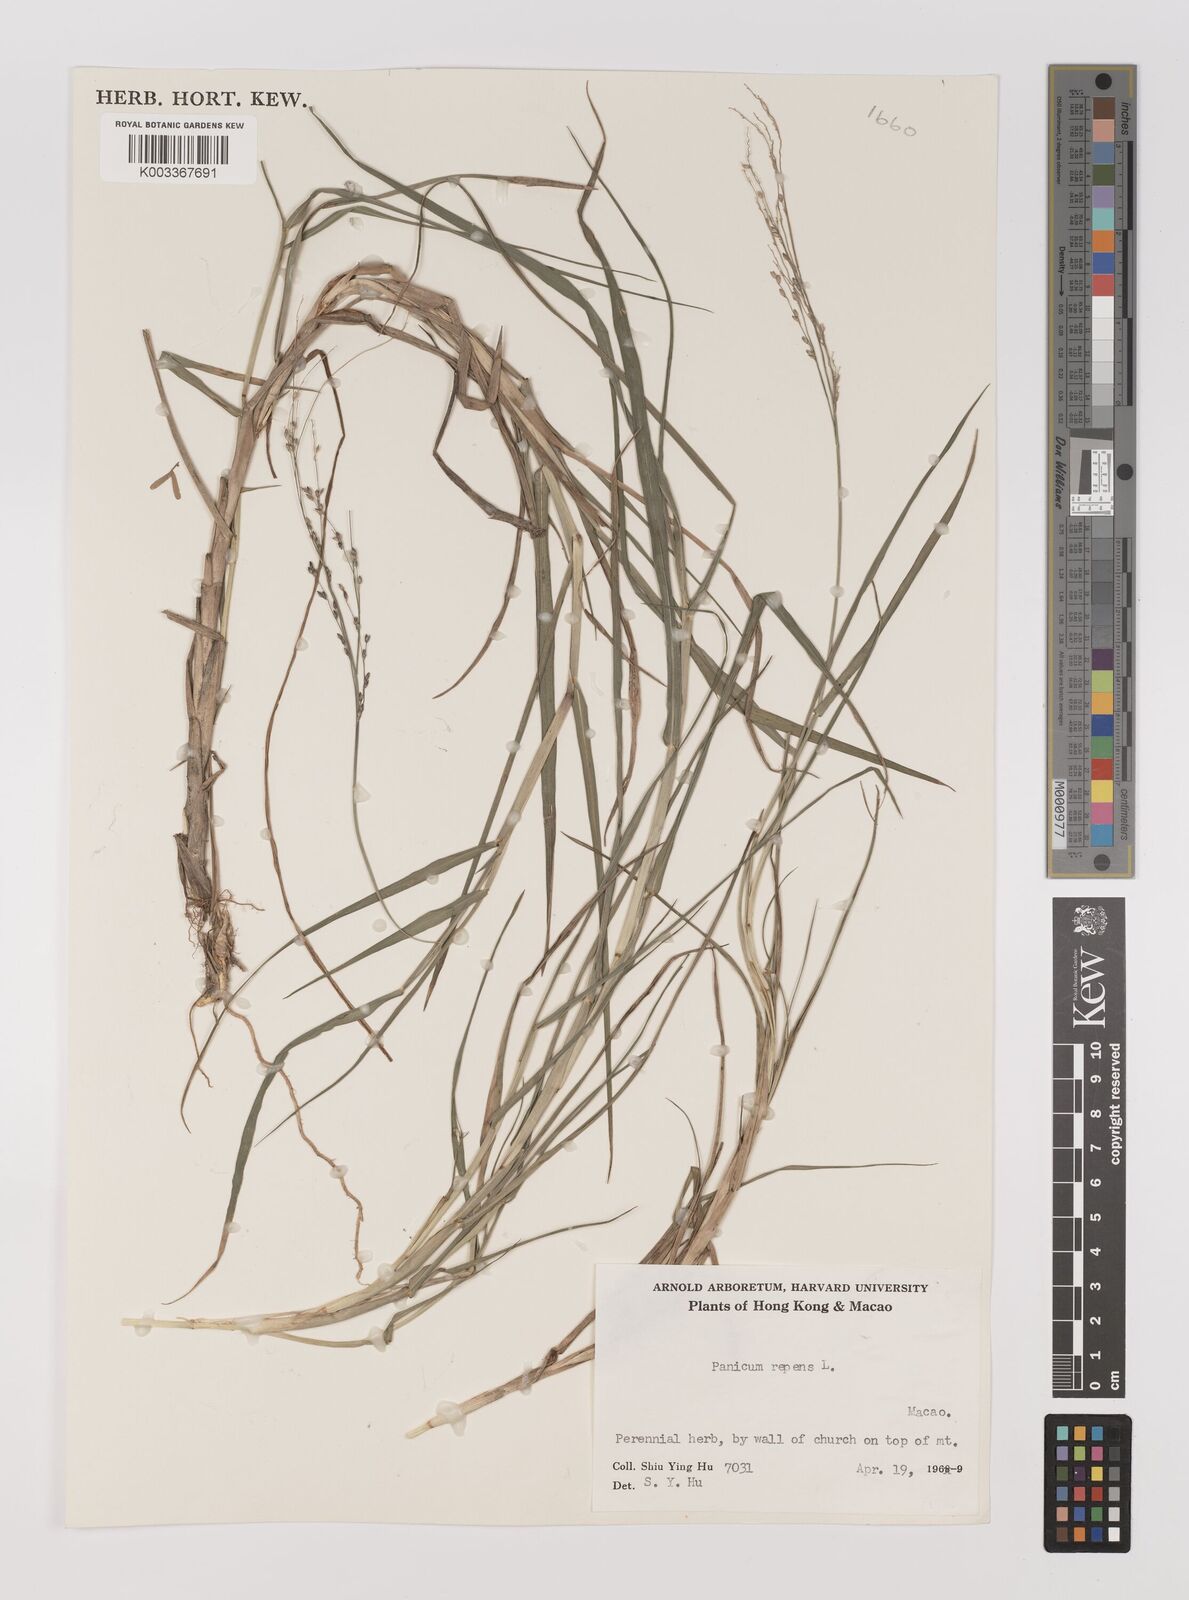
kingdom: Plantae
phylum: Tracheophyta
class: Liliopsida
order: Poales
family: Poaceae
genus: Panicum
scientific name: Panicum repens
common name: Torpedo grass
